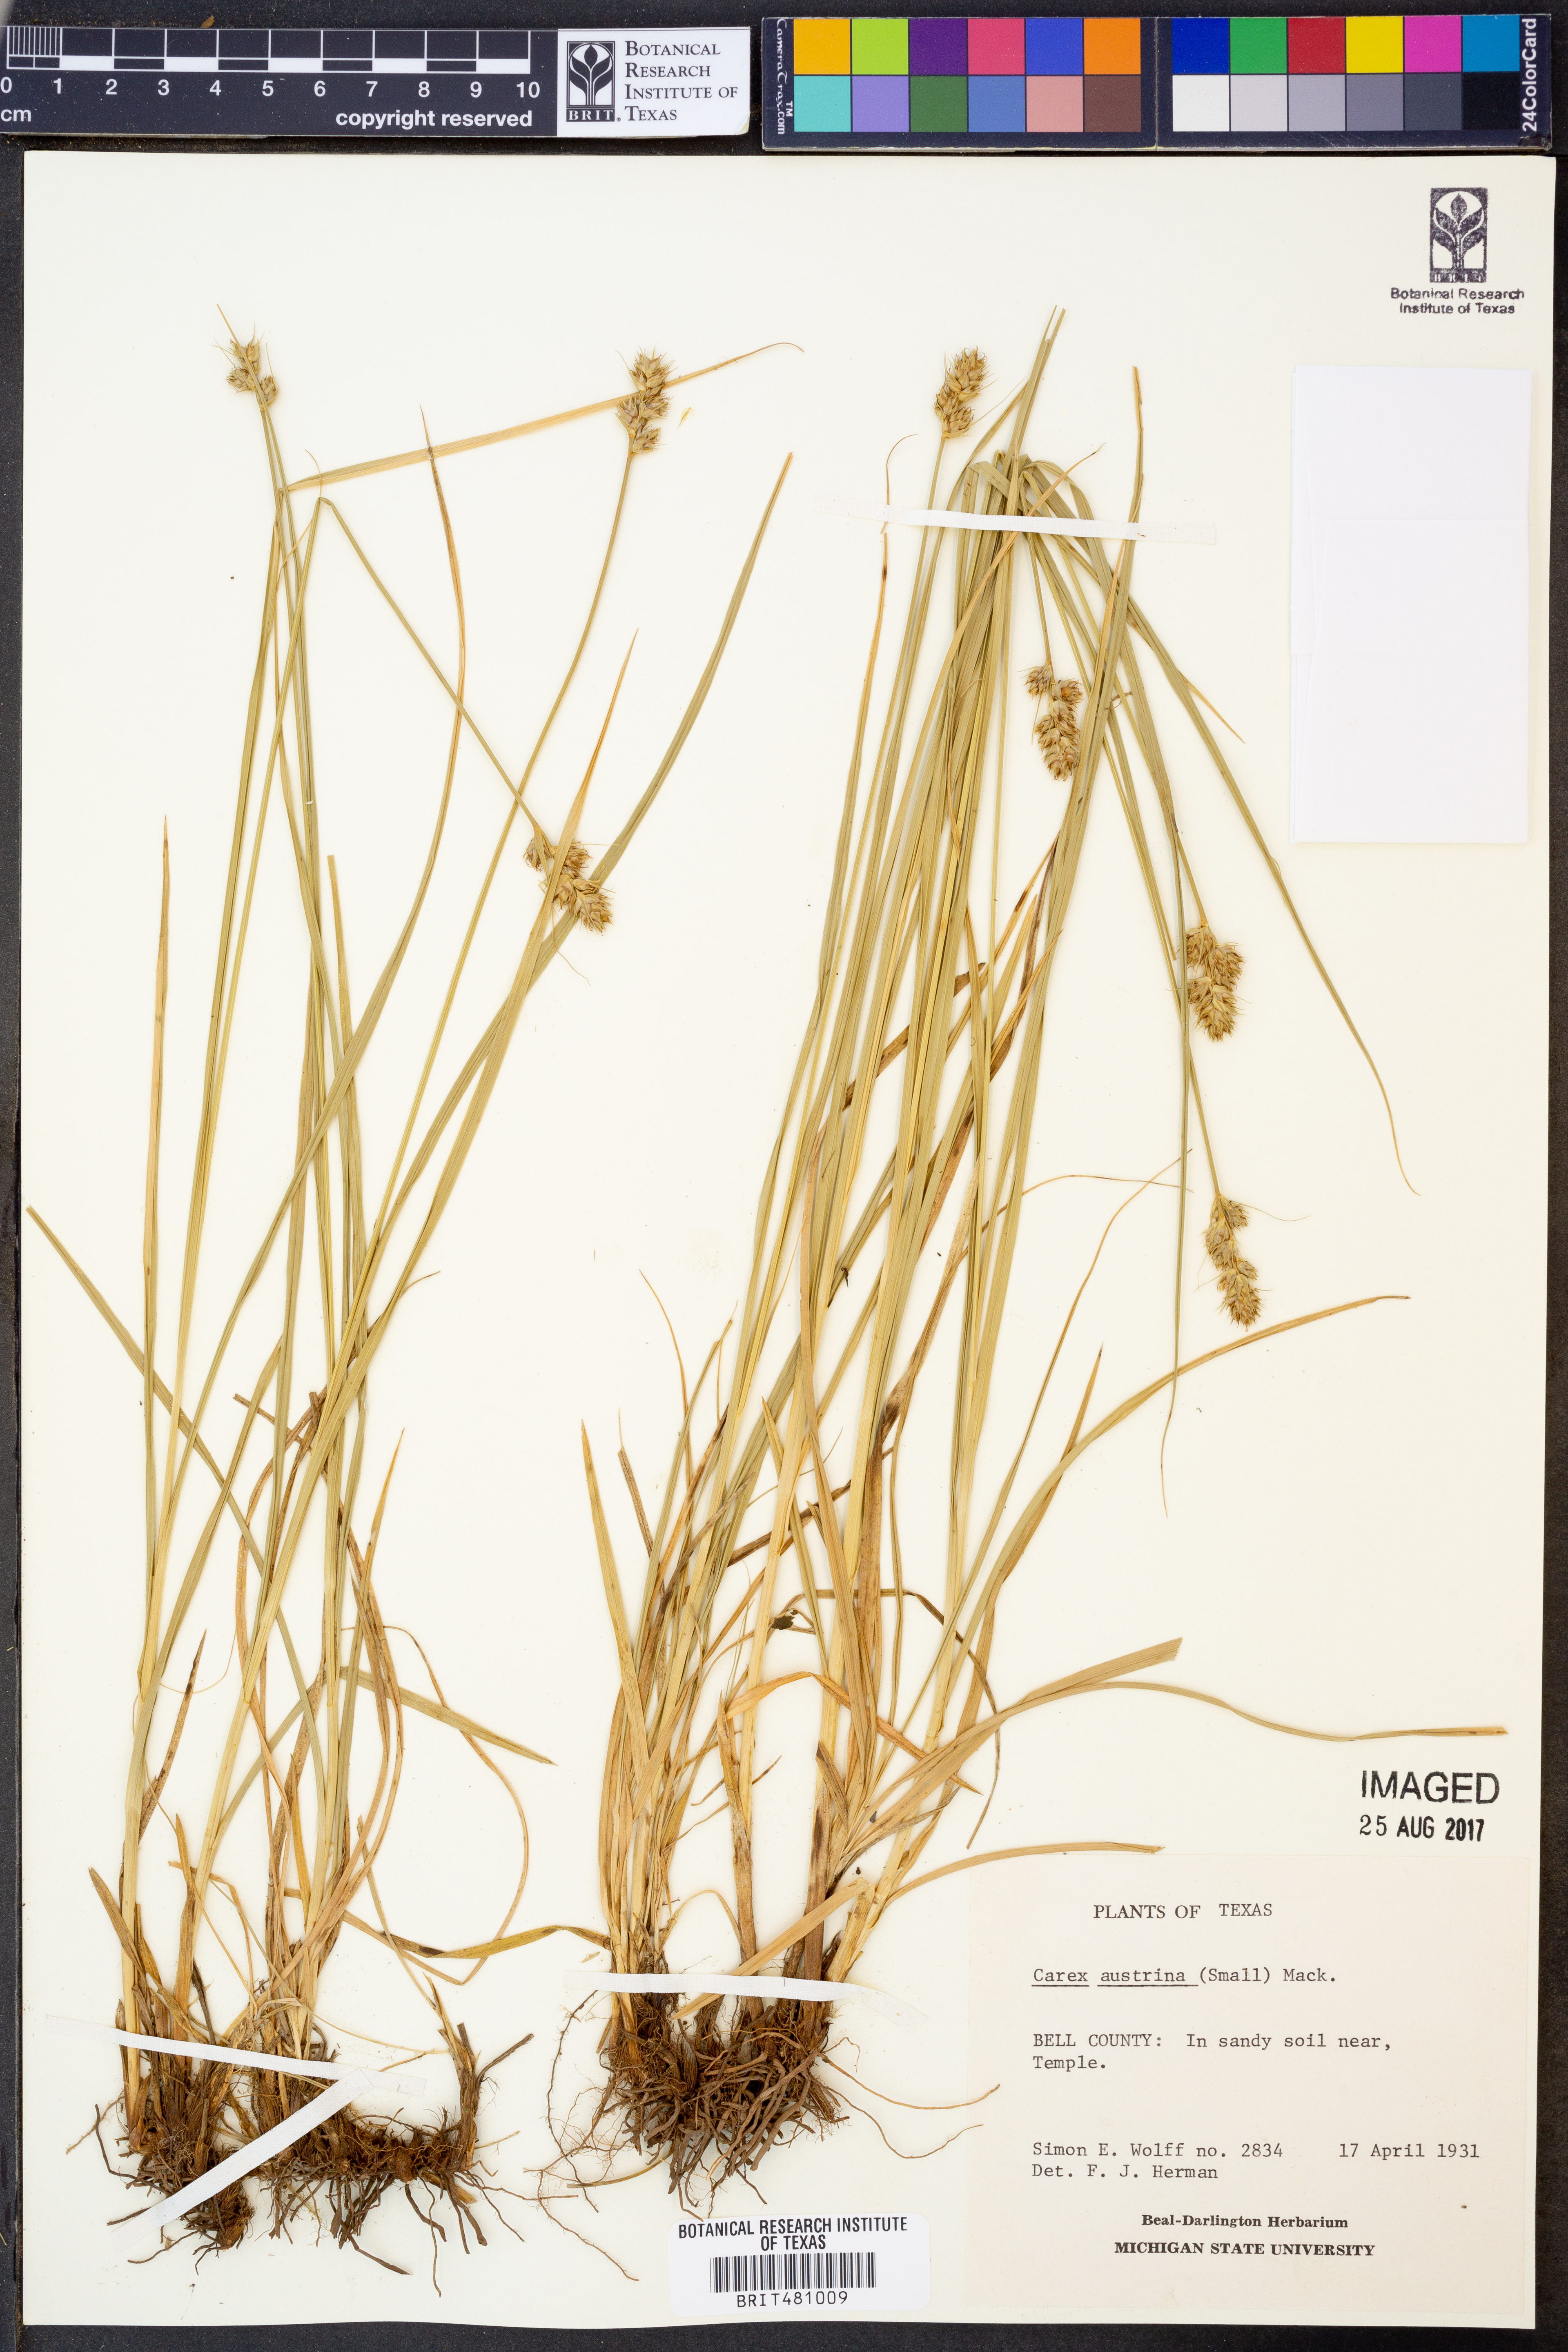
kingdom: Plantae
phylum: Tracheophyta
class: Liliopsida
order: Poales
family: Cyperaceae
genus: Carex
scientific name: Carex austrina
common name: Southern sedge
